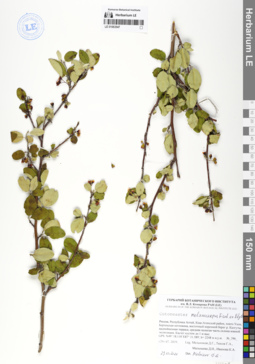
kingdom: Plantae
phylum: Tracheophyta
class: Magnoliopsida
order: Rosales
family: Rosaceae
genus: Cotoneaster
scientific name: Cotoneaster niger
